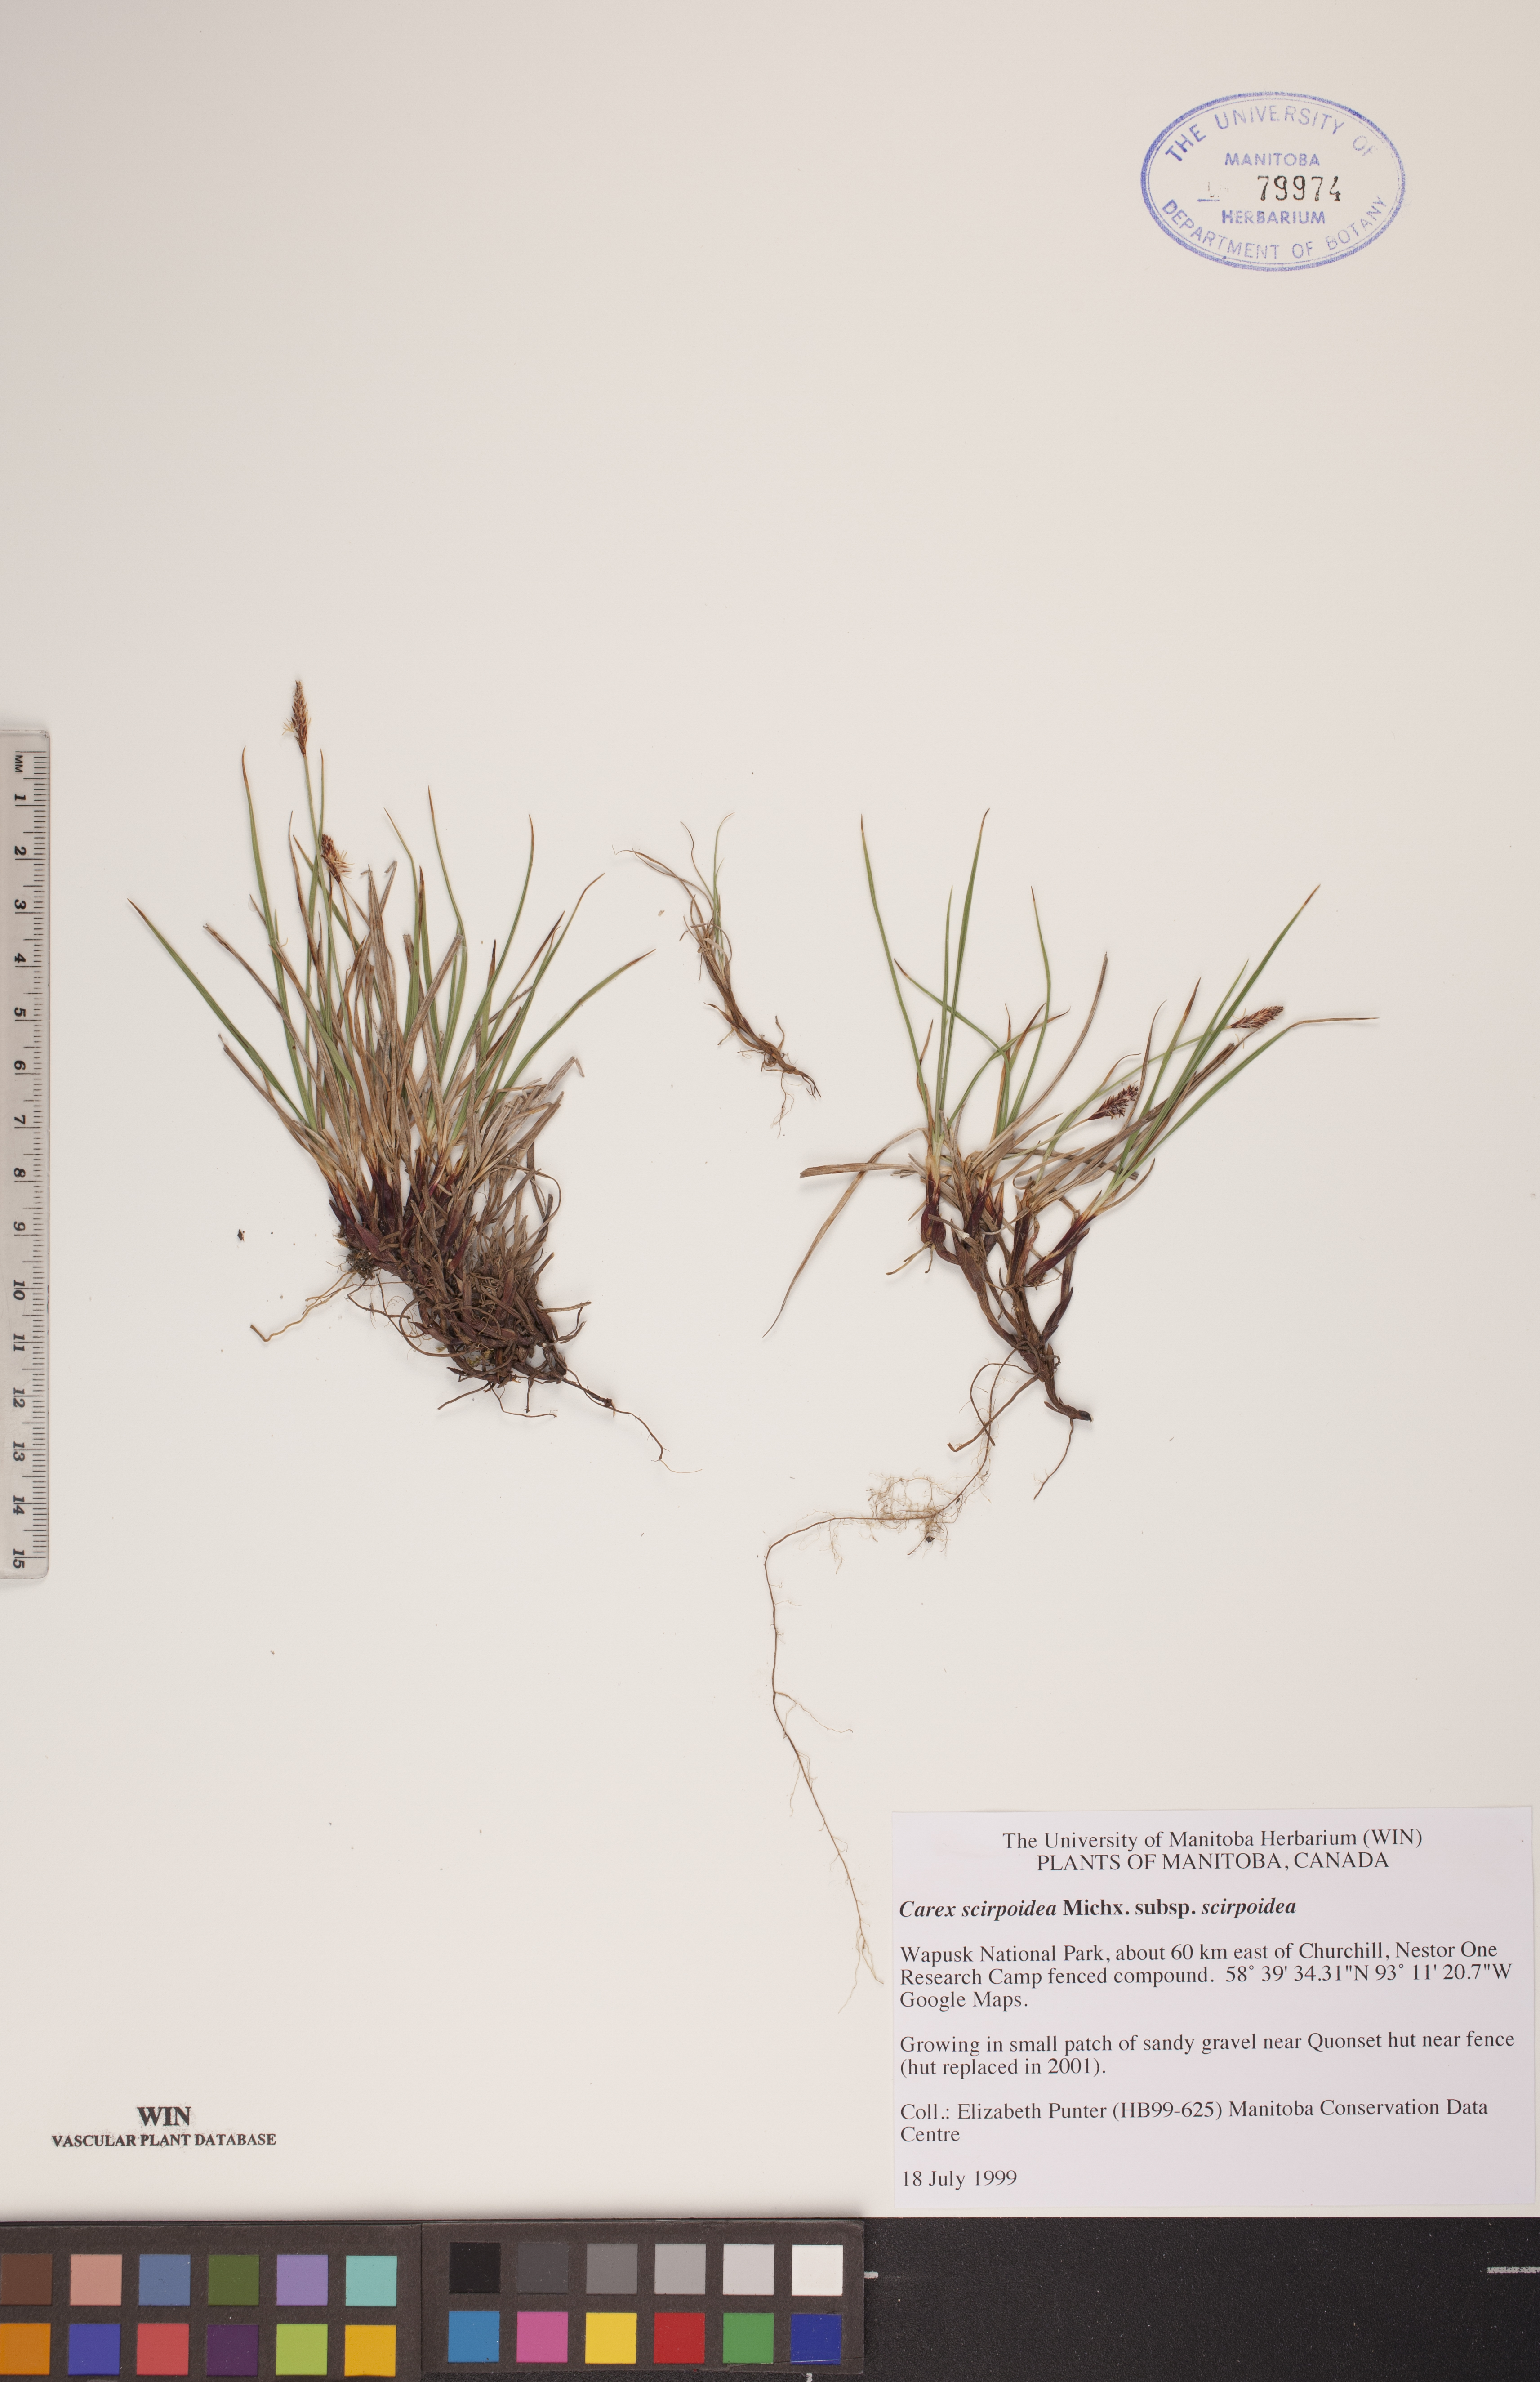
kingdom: Plantae
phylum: Tracheophyta
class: Liliopsida
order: Poales
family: Cyperaceae
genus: Carex
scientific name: Carex scirpoidea
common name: Canada single-spike sedge
